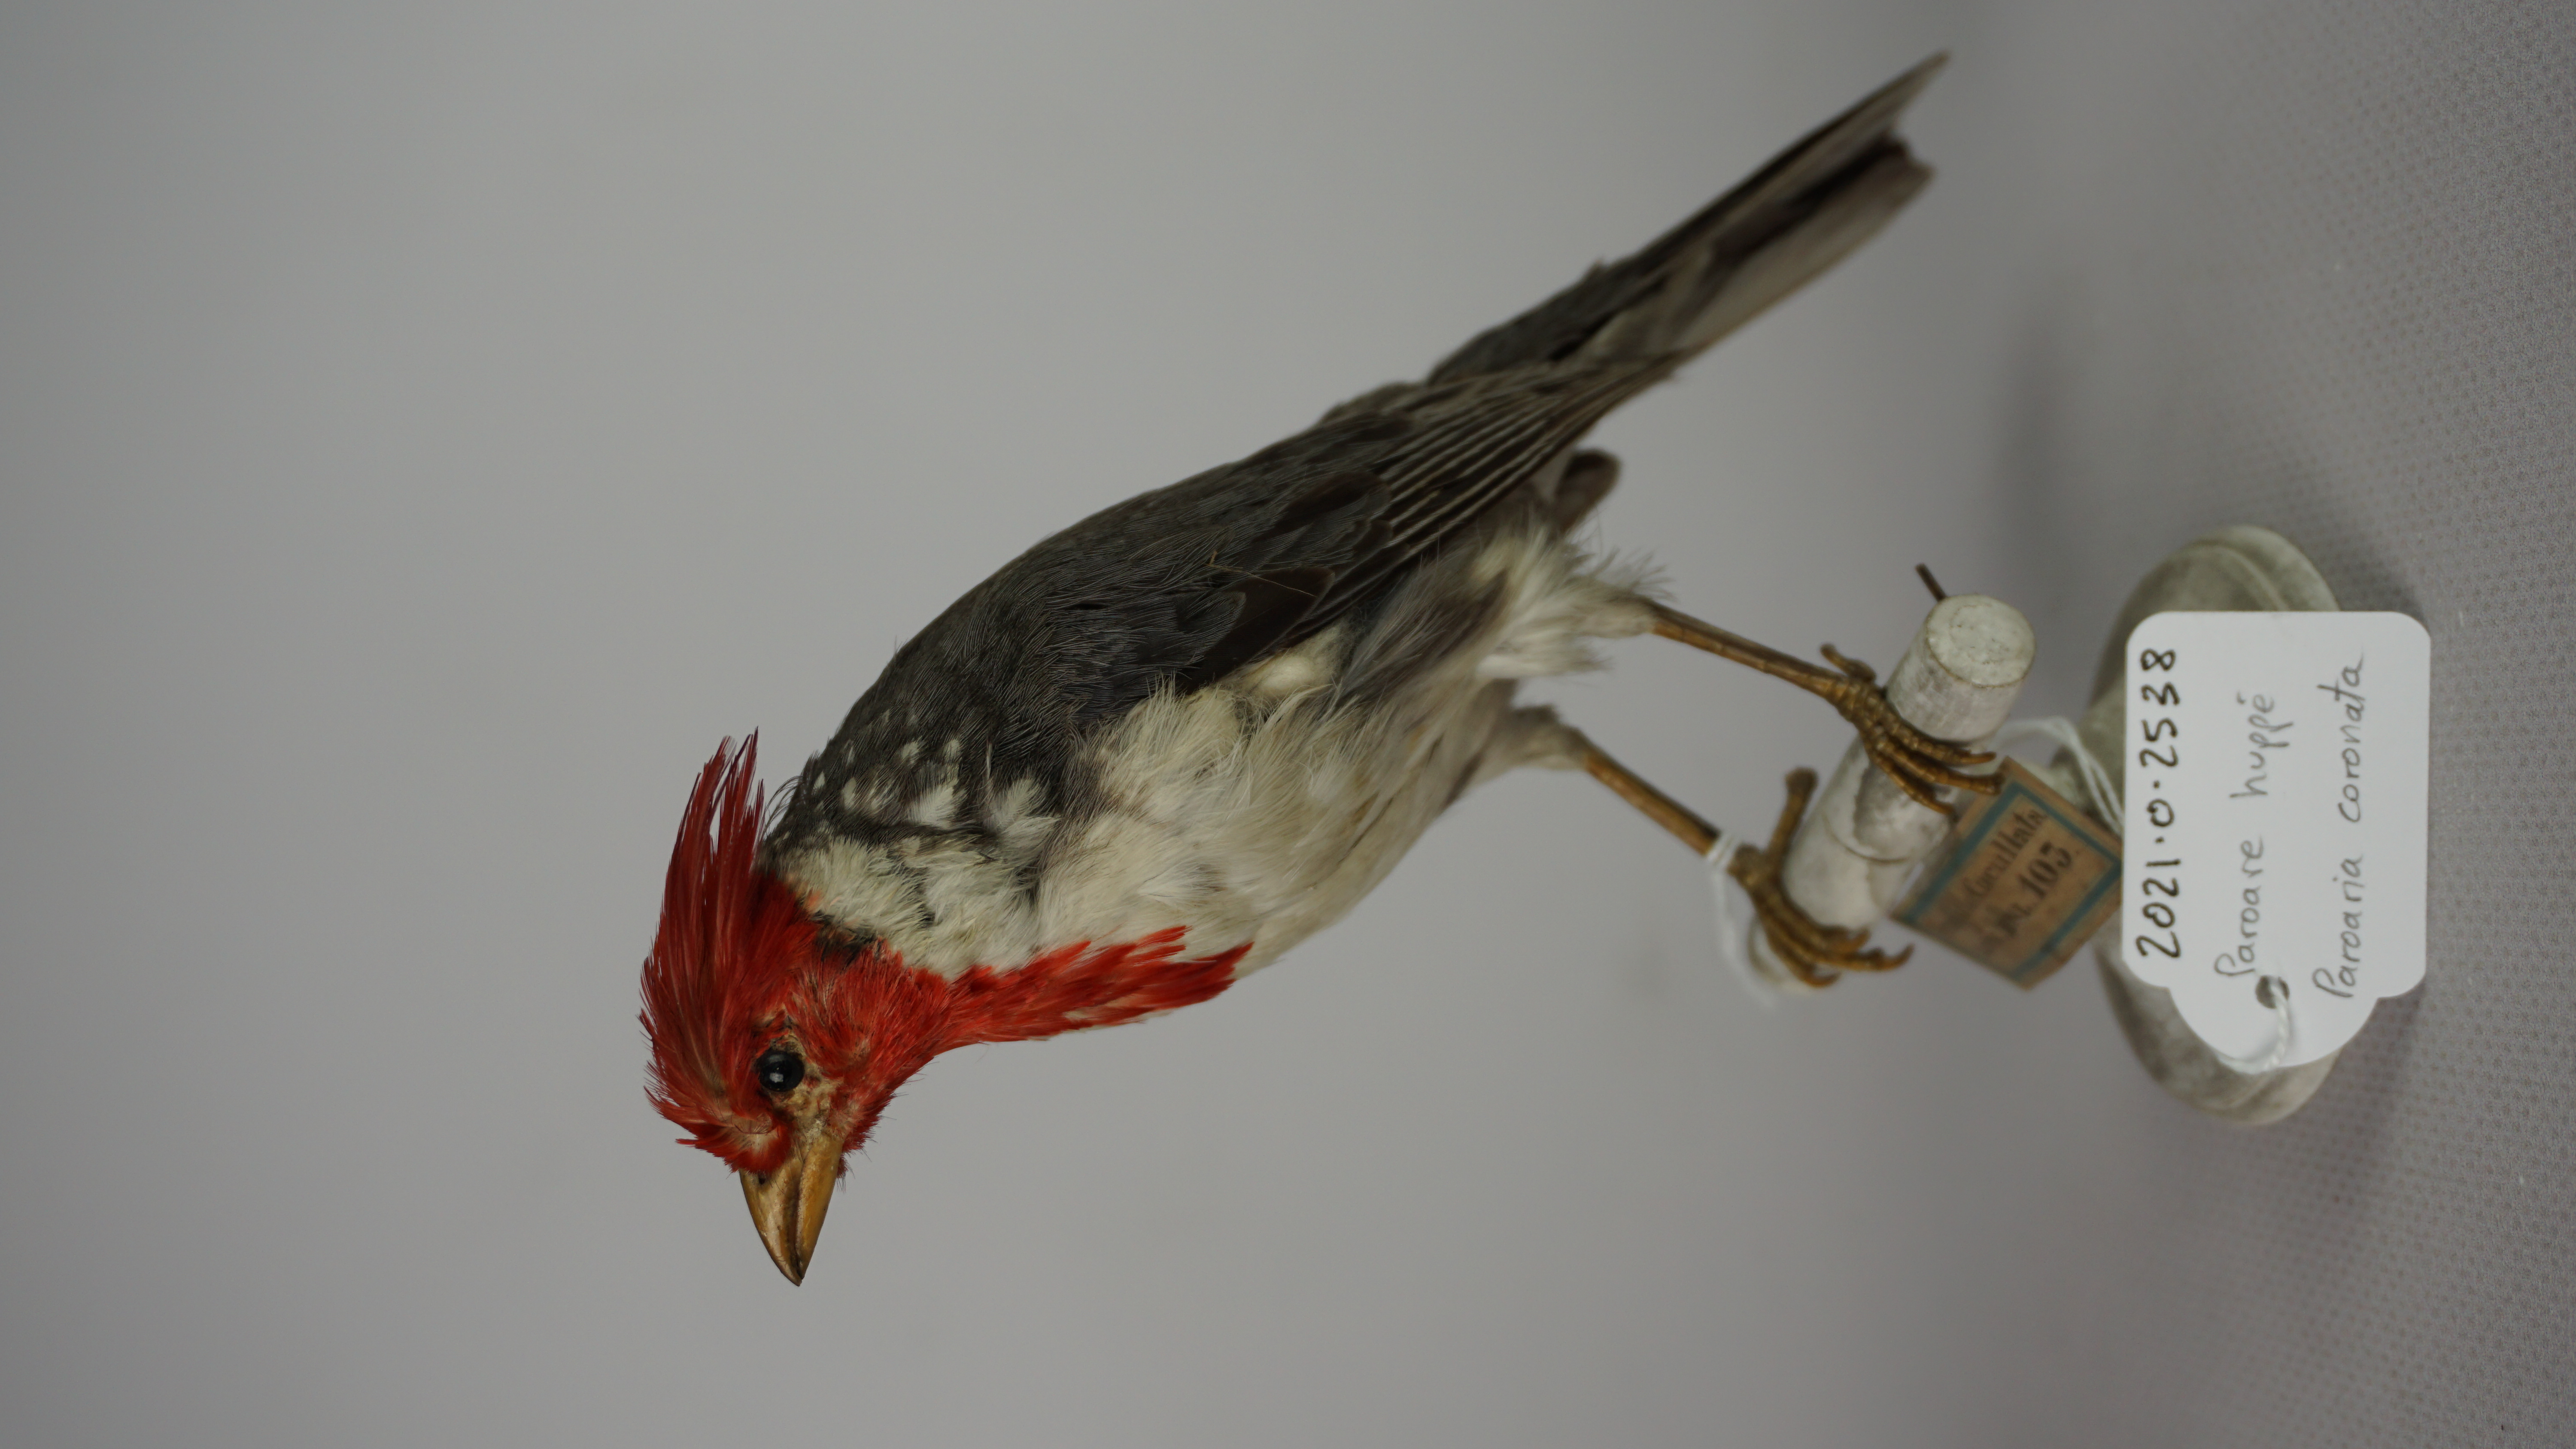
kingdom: Animalia
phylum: Chordata
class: Aves
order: Passeriformes
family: Thraupidae
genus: Paroaria
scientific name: Paroaria coronata
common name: Red-crested cardinal
